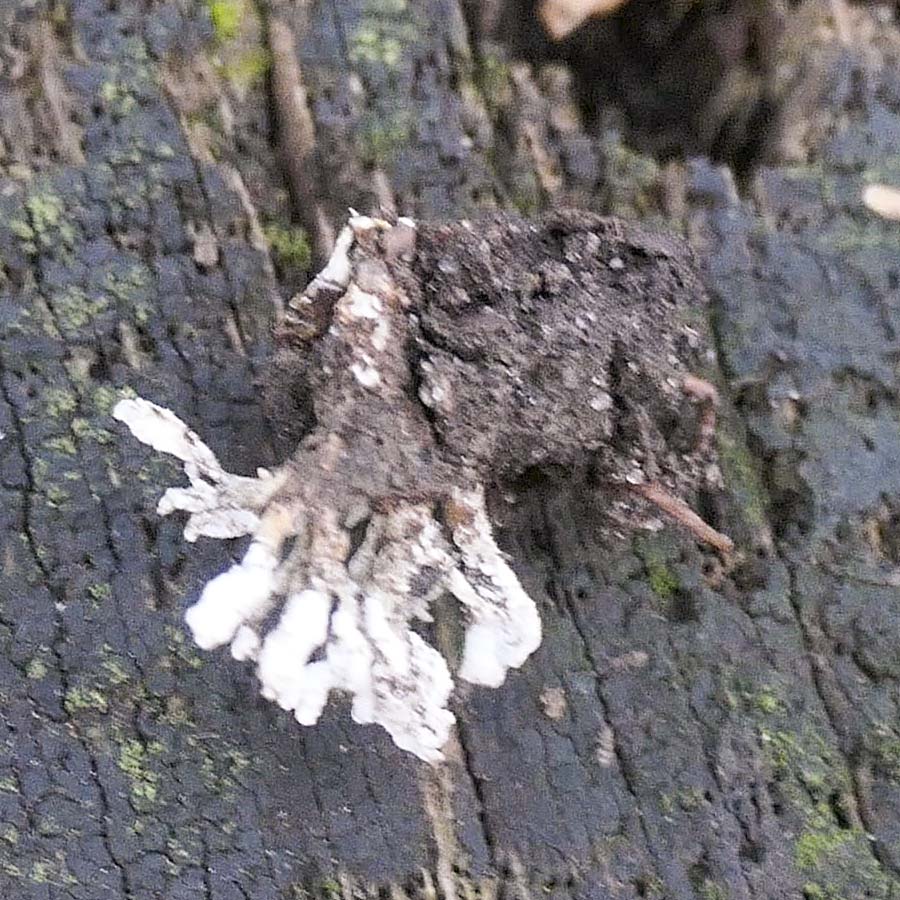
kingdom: Fungi
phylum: Ascomycota
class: Sordariomycetes
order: Hypocreales
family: Cordycipitaceae
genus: Cordyceps
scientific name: Cordyceps farinosa
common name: melet snyltekølle
